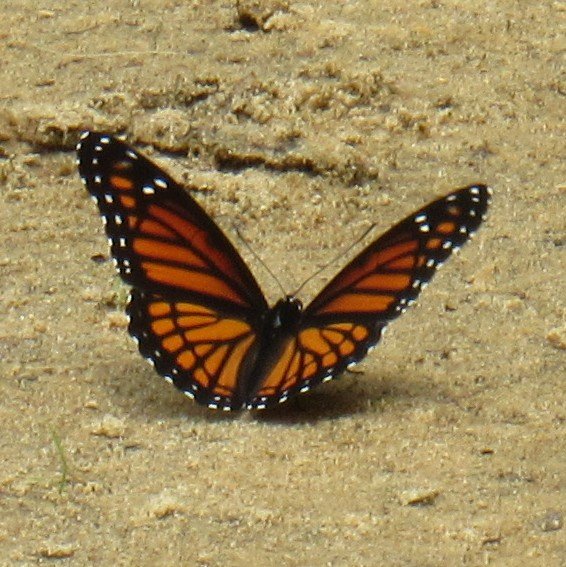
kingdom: Animalia
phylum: Arthropoda
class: Insecta
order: Lepidoptera
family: Nymphalidae
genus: Limenitis
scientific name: Limenitis archippus
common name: Viceroy
